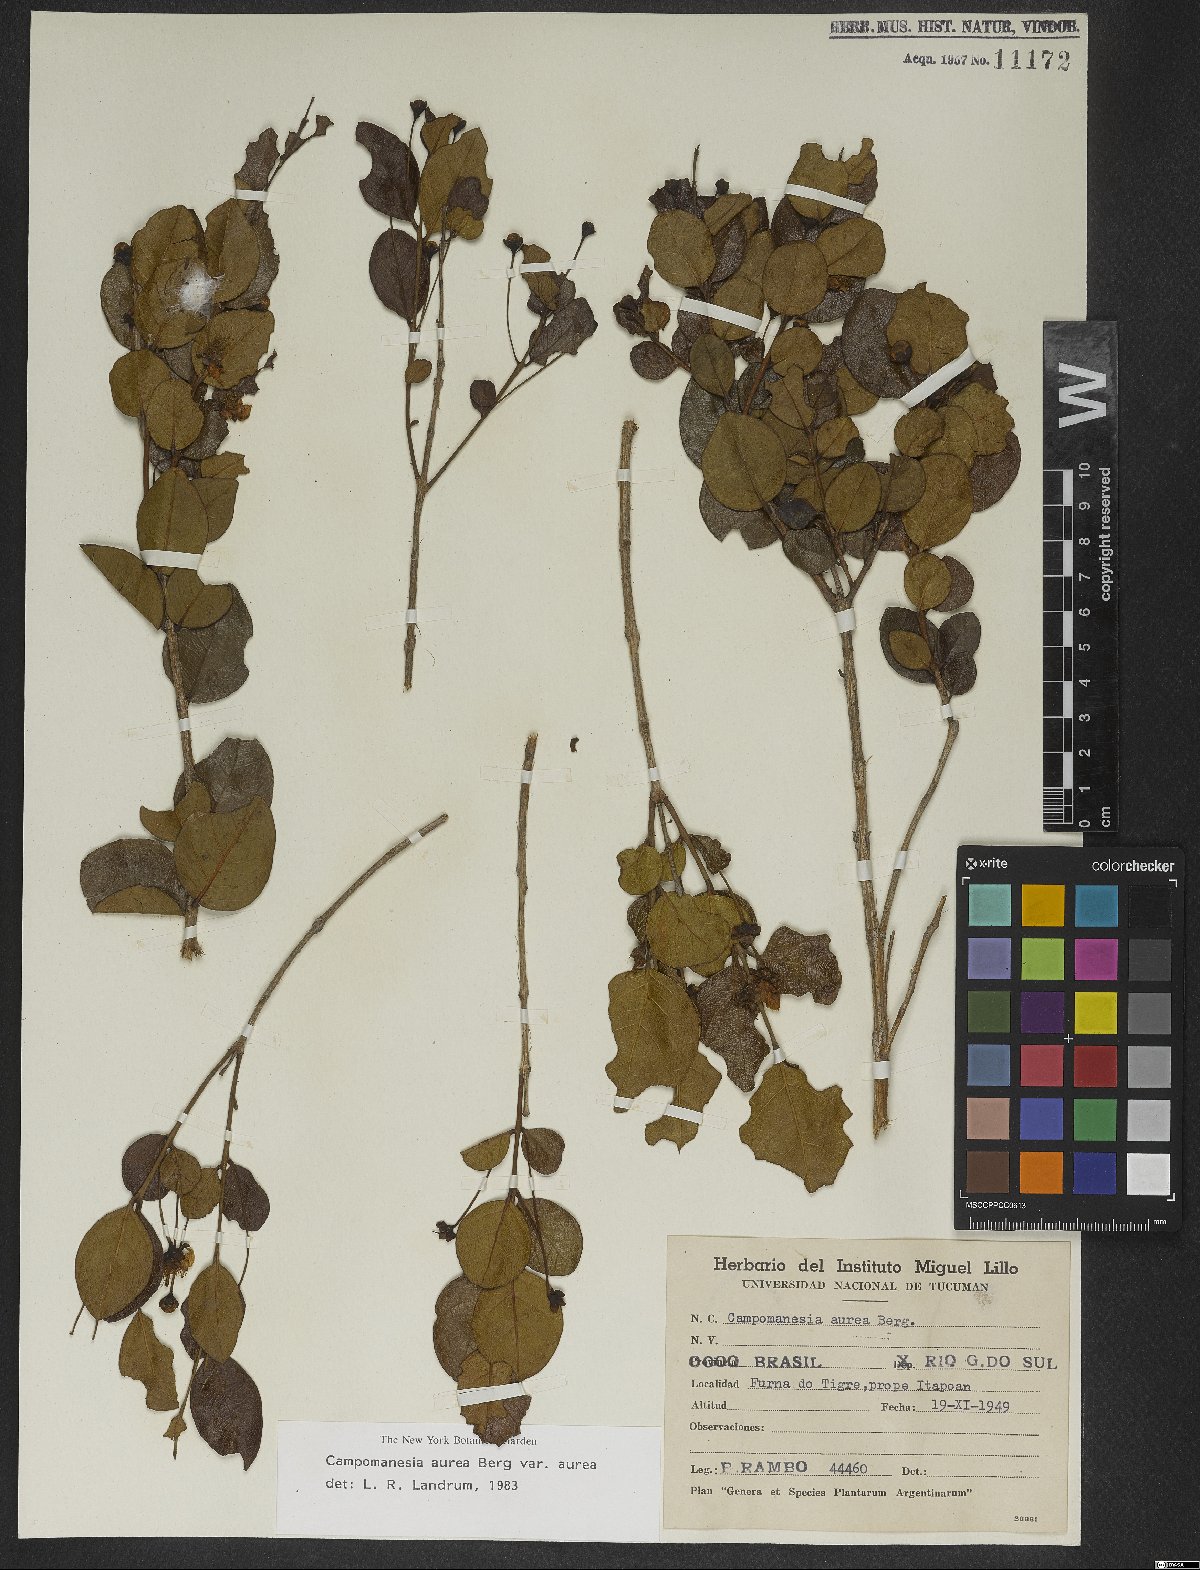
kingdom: Plantae
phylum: Tracheophyta
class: Magnoliopsida
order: Myrtales
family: Myrtaceae
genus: Campomanesia
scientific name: Campomanesia aurea
